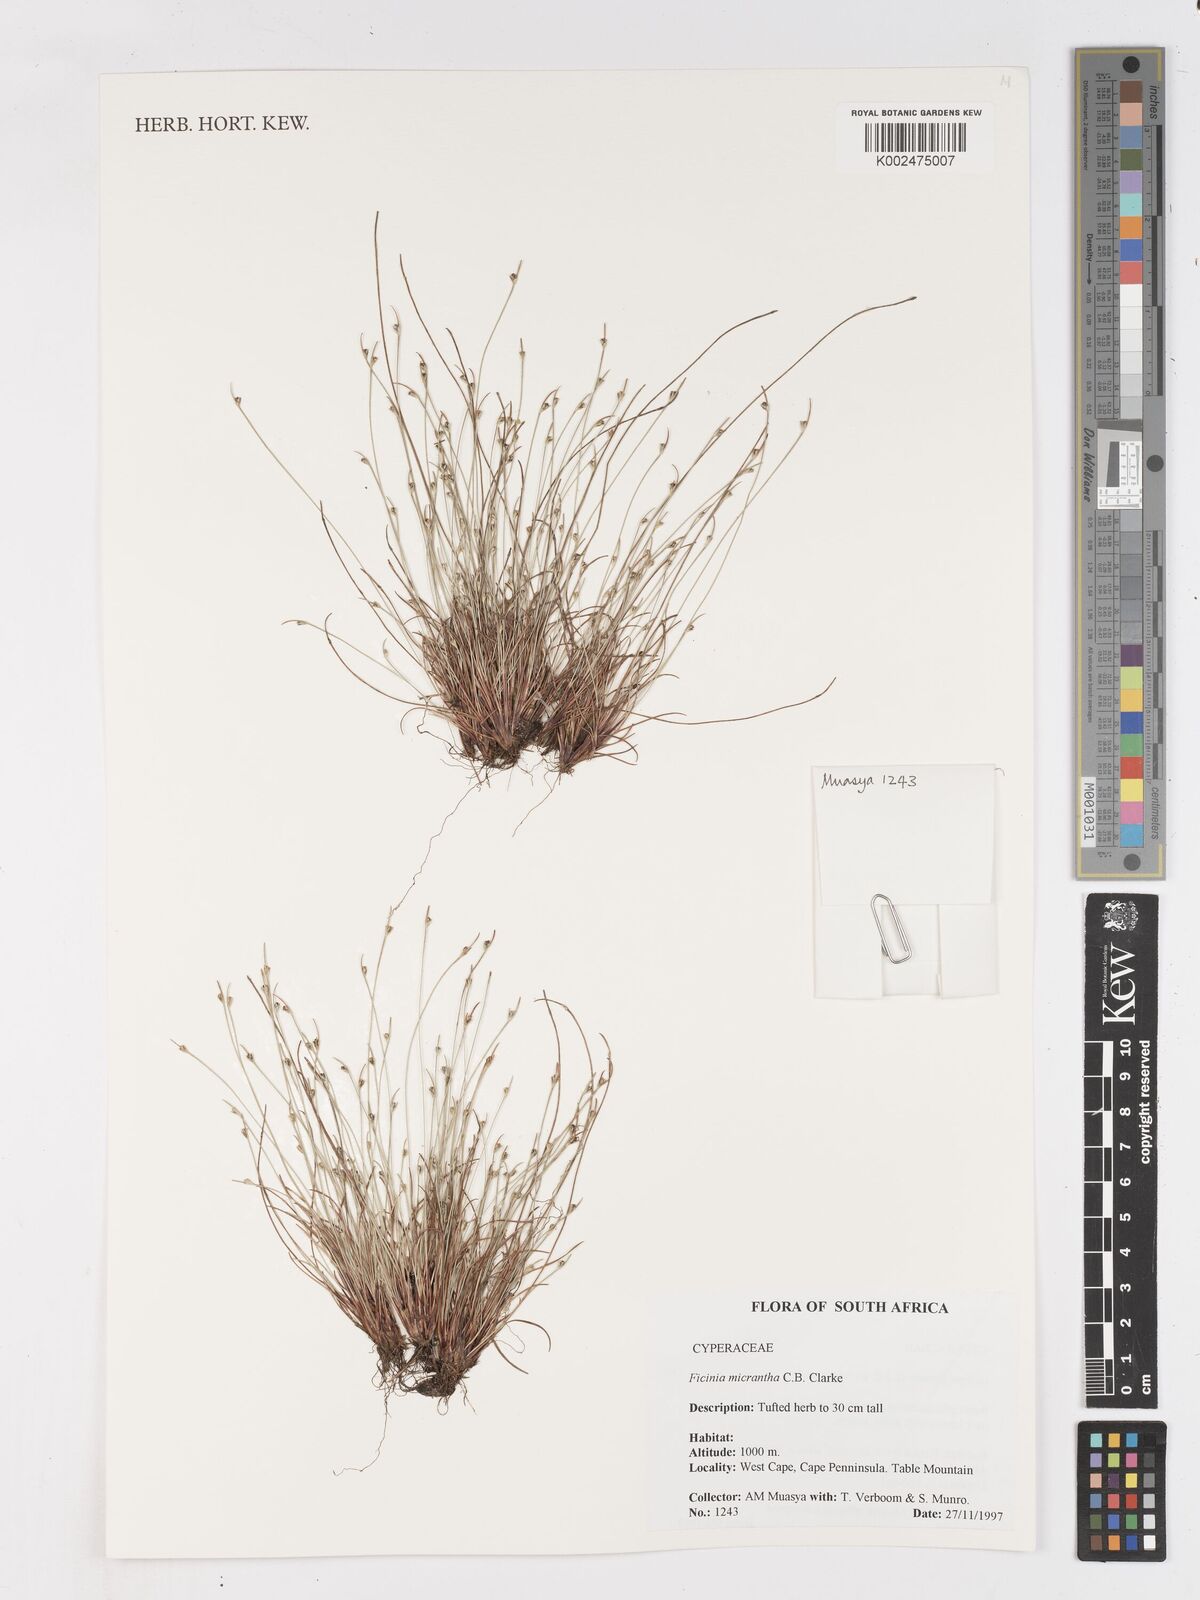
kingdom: Plantae
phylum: Tracheophyta
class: Liliopsida
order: Poales
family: Cyperaceae
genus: Ficinia
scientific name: Ficinia micrantha
